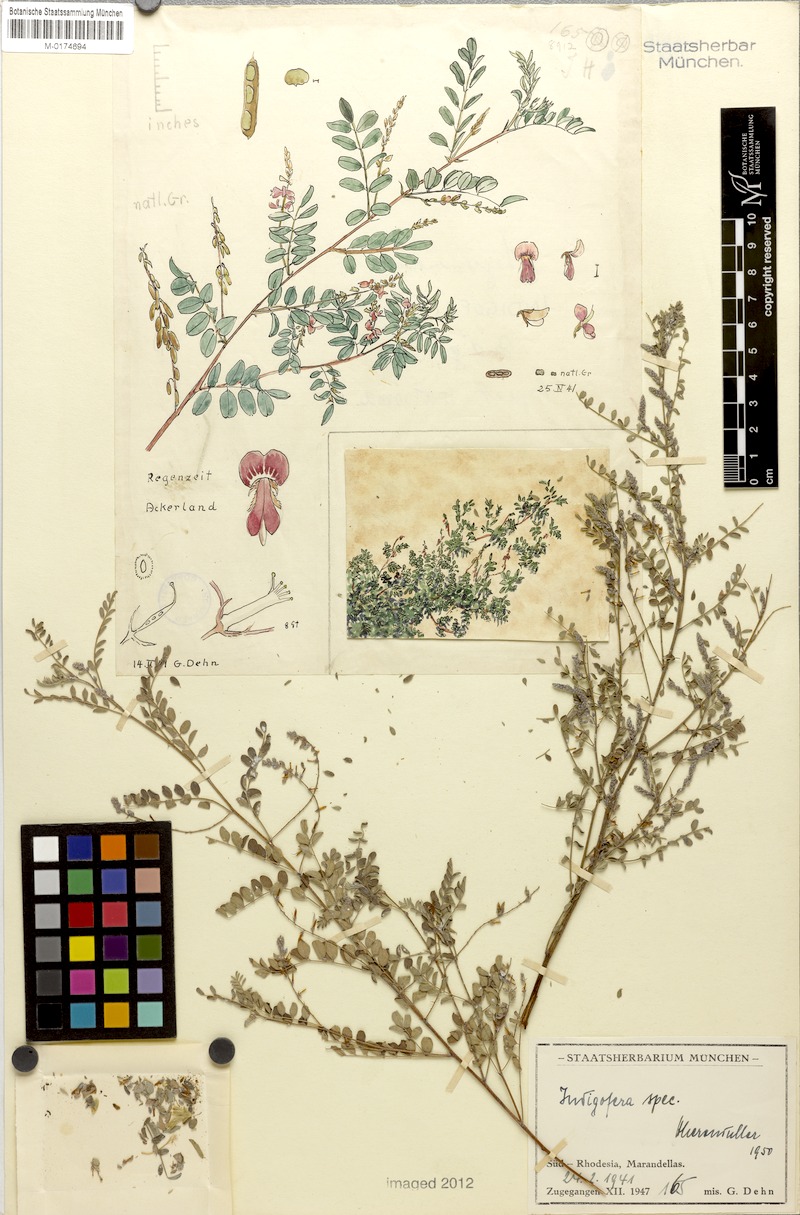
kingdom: Plantae
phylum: Tracheophyta
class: Magnoliopsida
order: Fabales
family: Fabaceae
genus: Indigofera
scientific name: Indigofera
